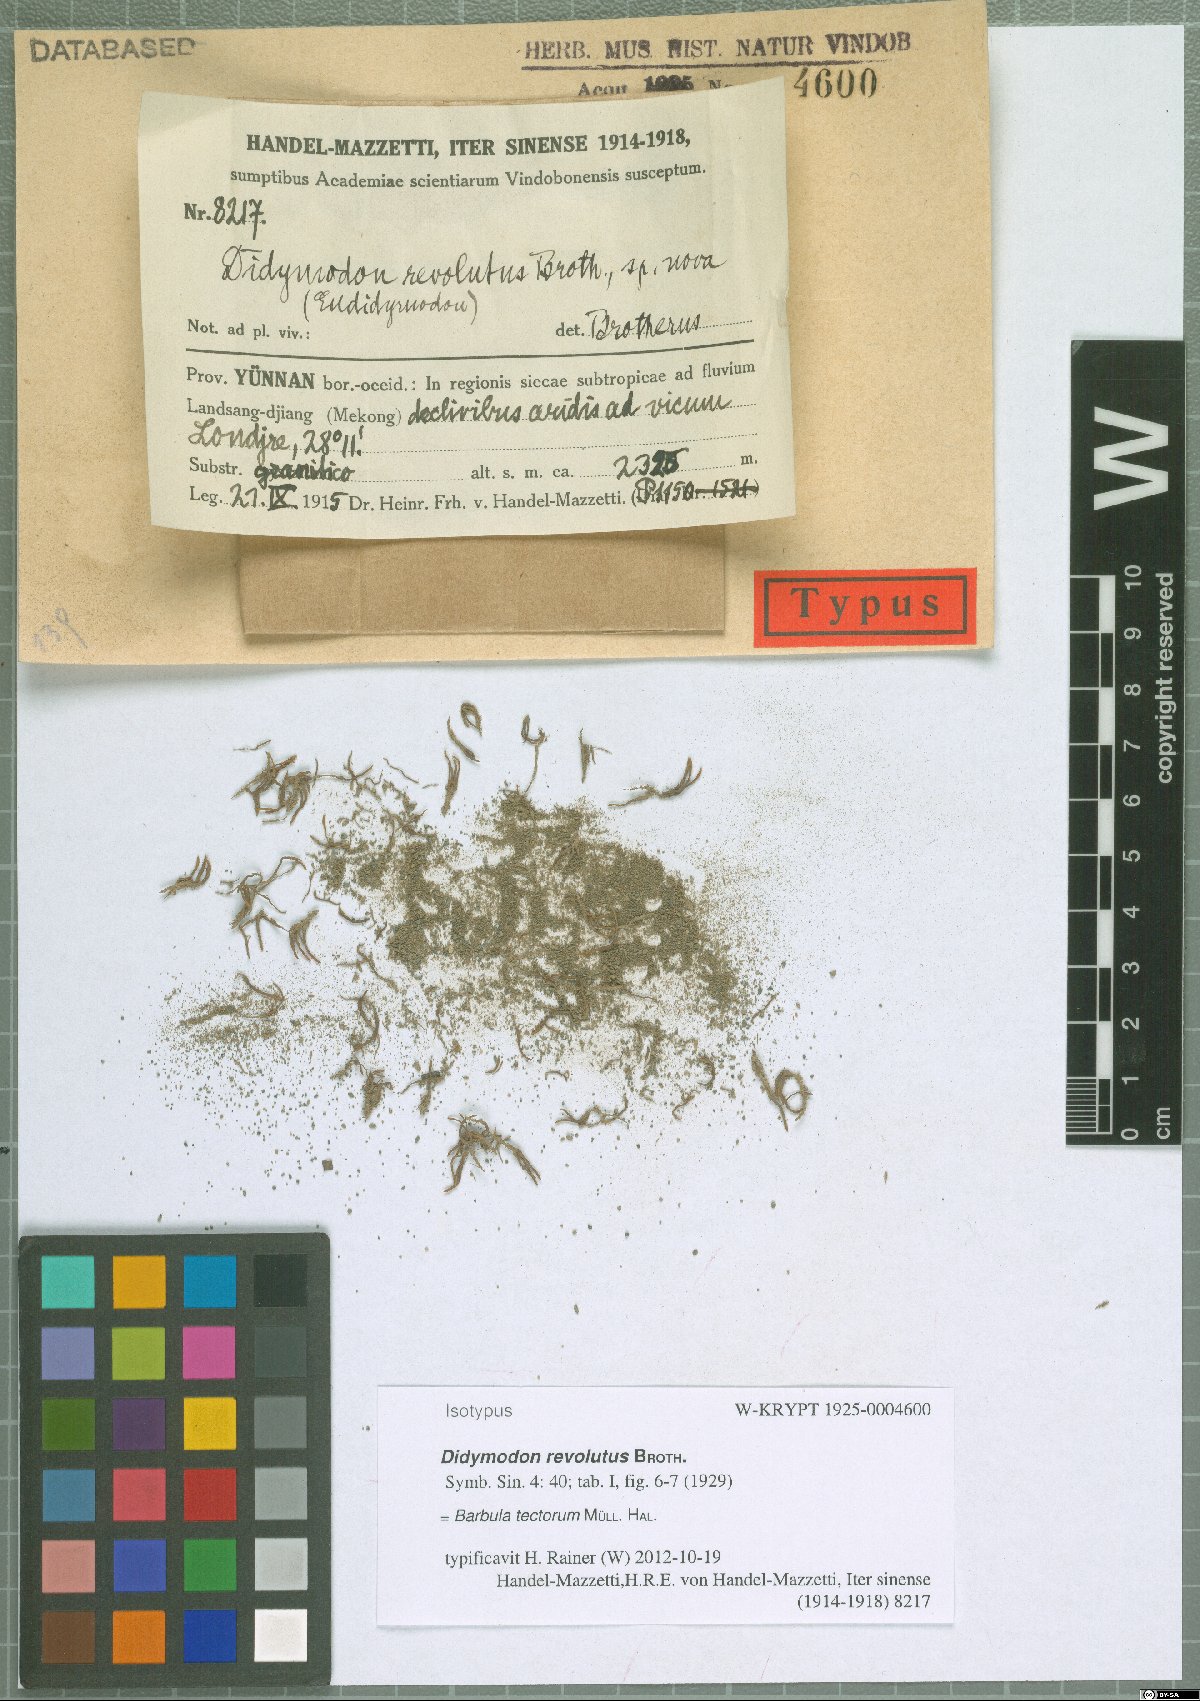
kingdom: Plantae
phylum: Bryophyta
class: Bryopsida
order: Pottiales
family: Pottiaceae
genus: Didymodon
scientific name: Didymodon tectorum
